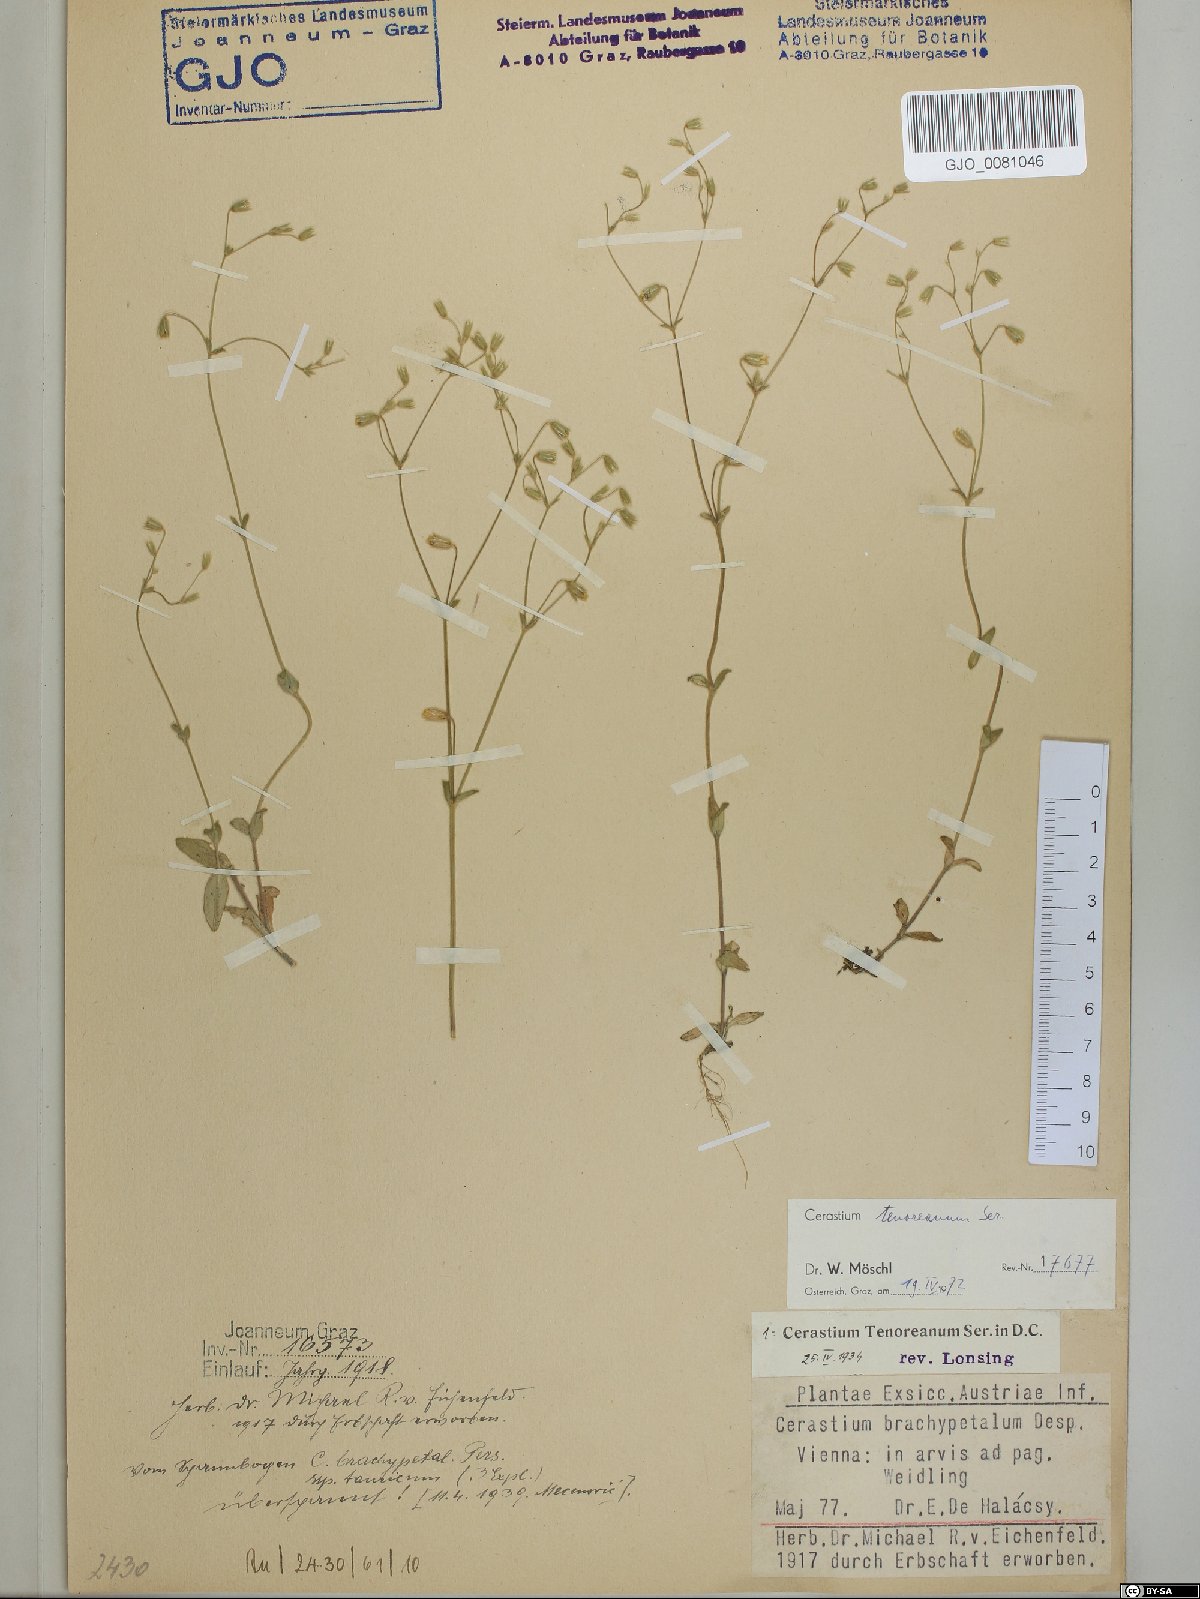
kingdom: Plantae
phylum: Tracheophyta
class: Magnoliopsida
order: Caryophyllales
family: Caryophyllaceae
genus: Cerastium
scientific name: Cerastium tenoreanum
